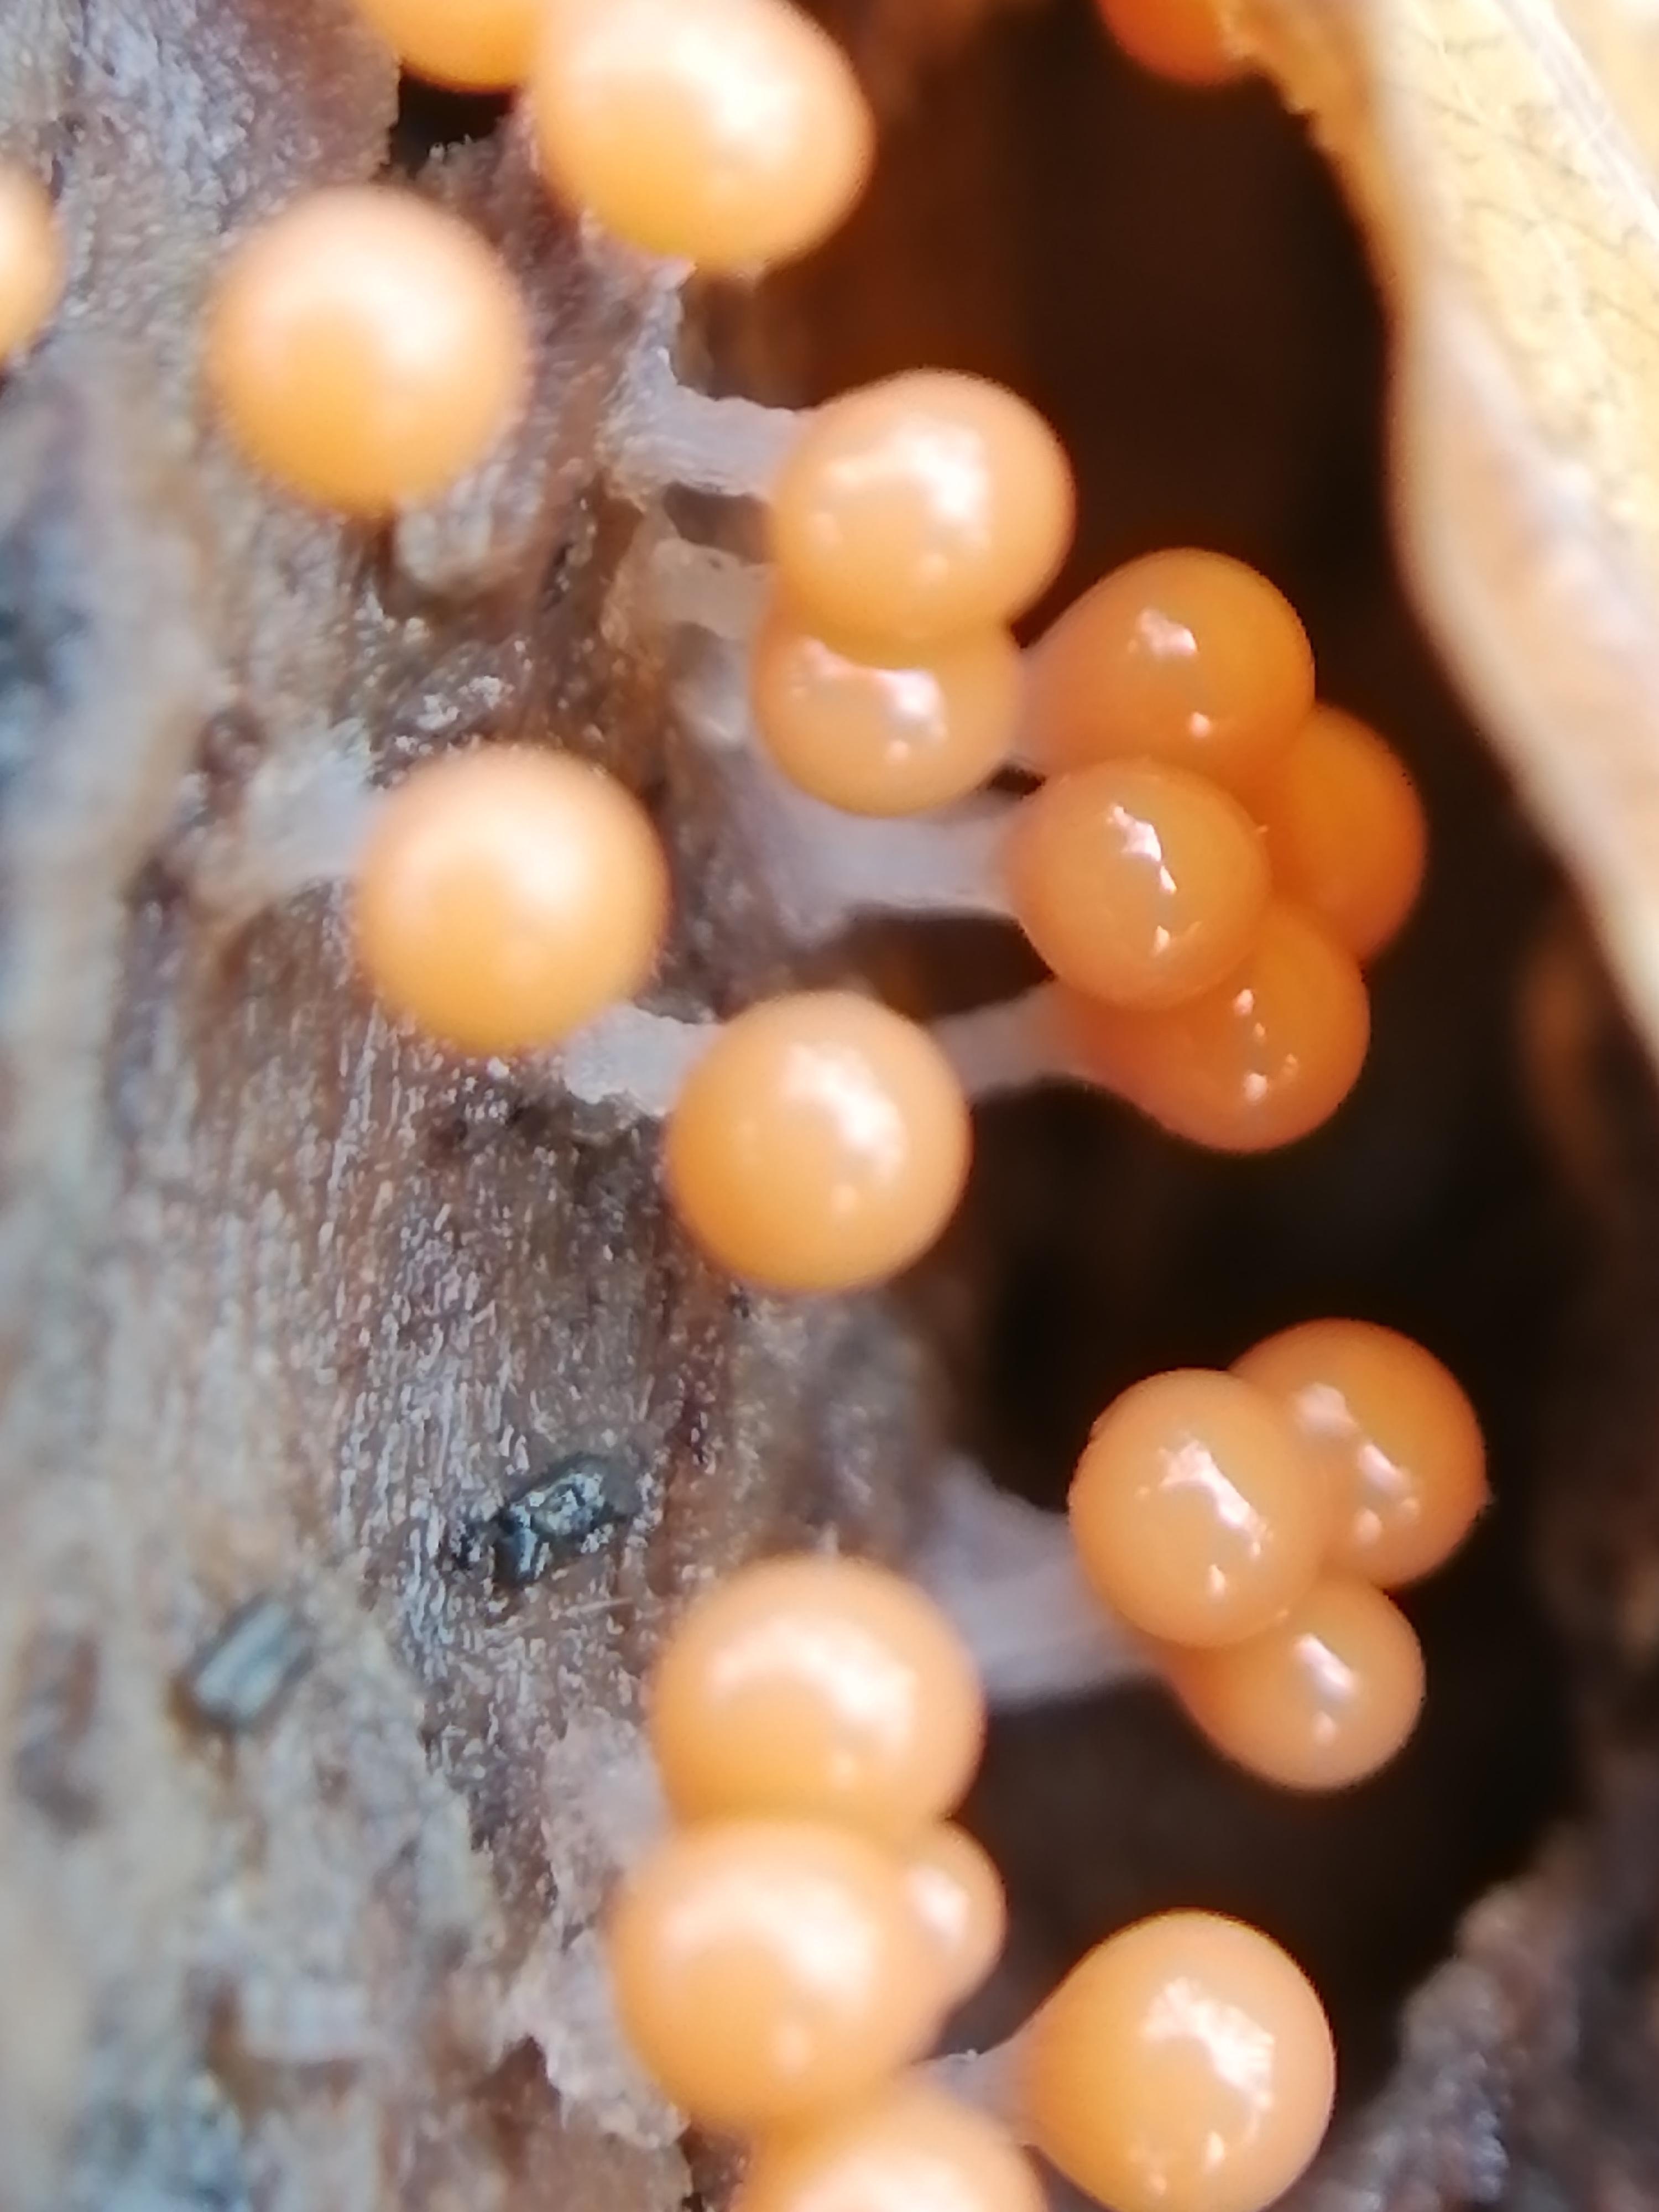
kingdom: Protozoa
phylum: Mycetozoa
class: Myxomycetes
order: Trichiales
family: Trichiaceae
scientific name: Trichiaceae
